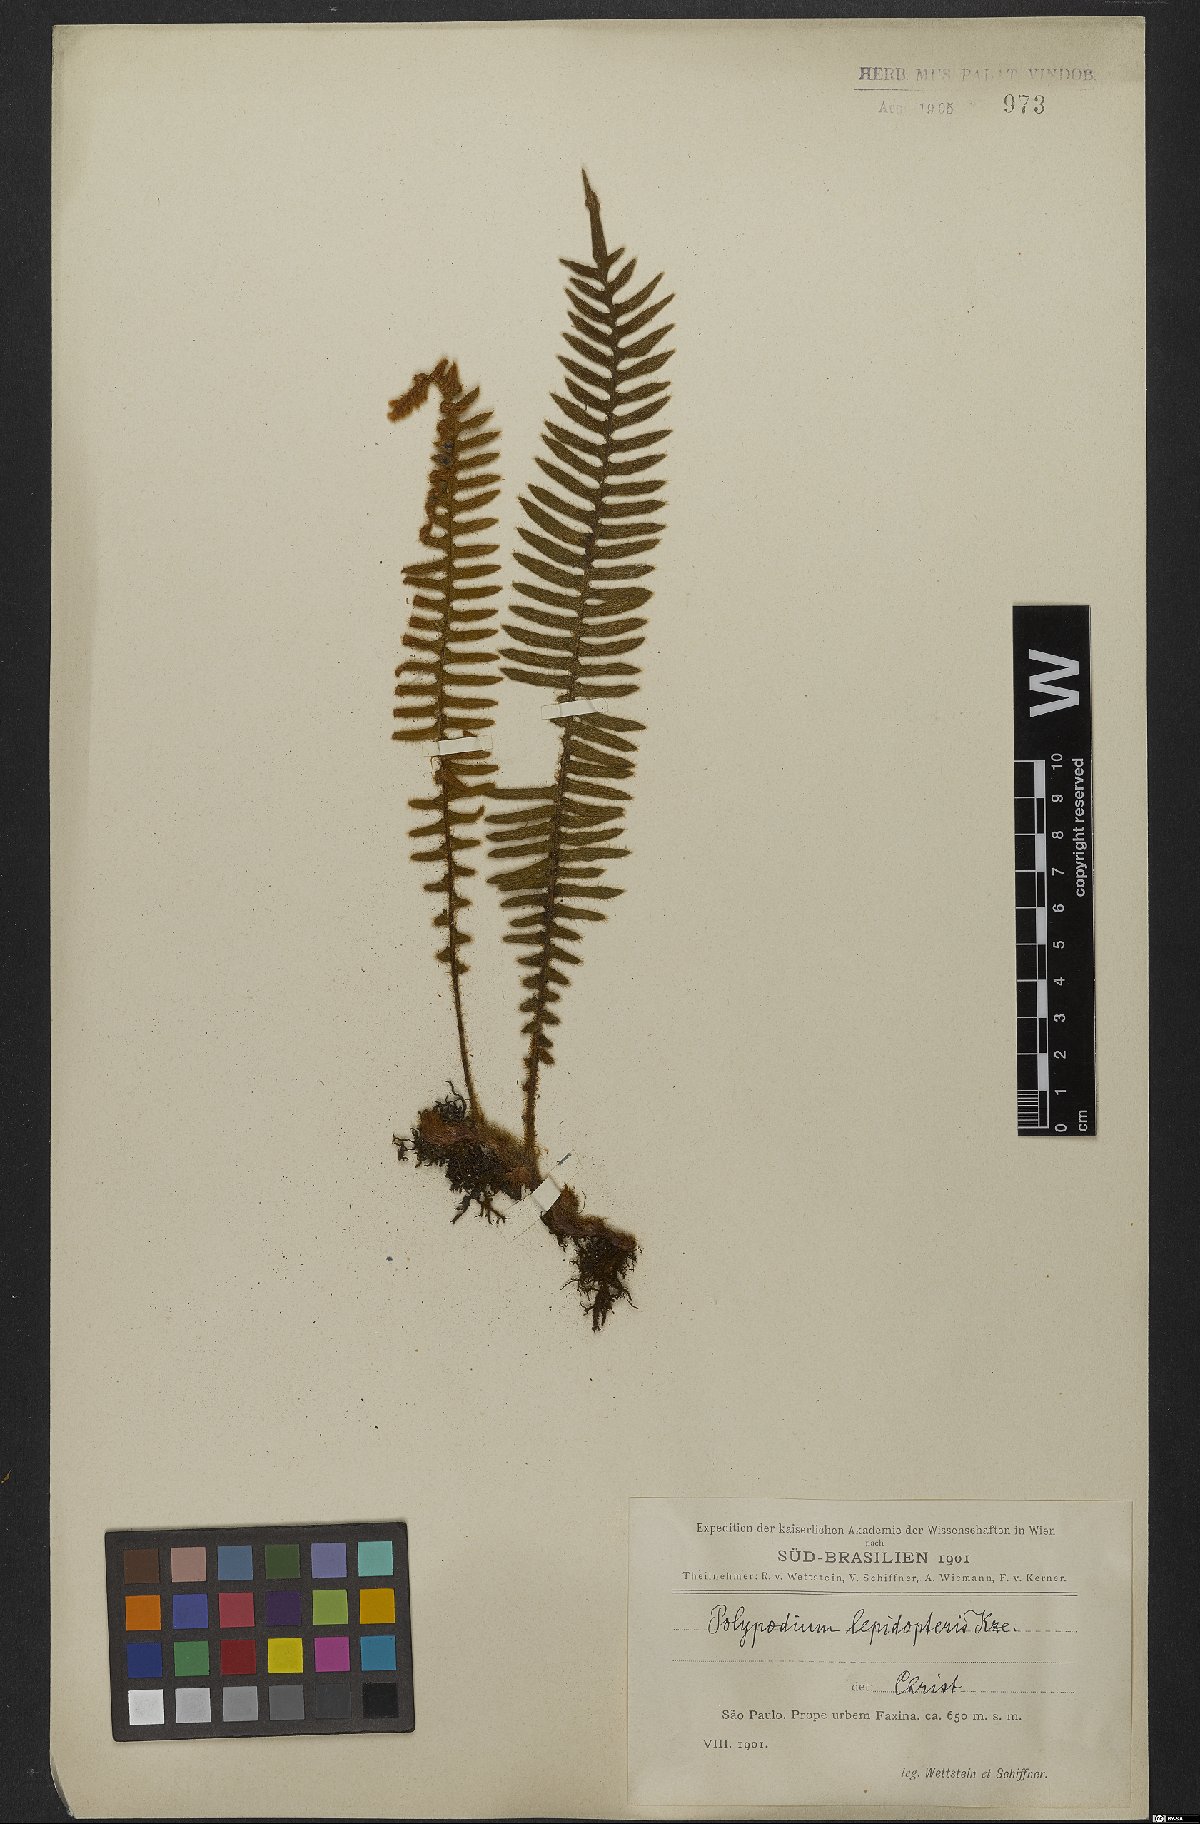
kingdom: Plantae
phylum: Tracheophyta
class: Polypodiopsida
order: Polypodiales
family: Polypodiaceae
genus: Pleopeltis
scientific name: Pleopeltis lepidopteris
